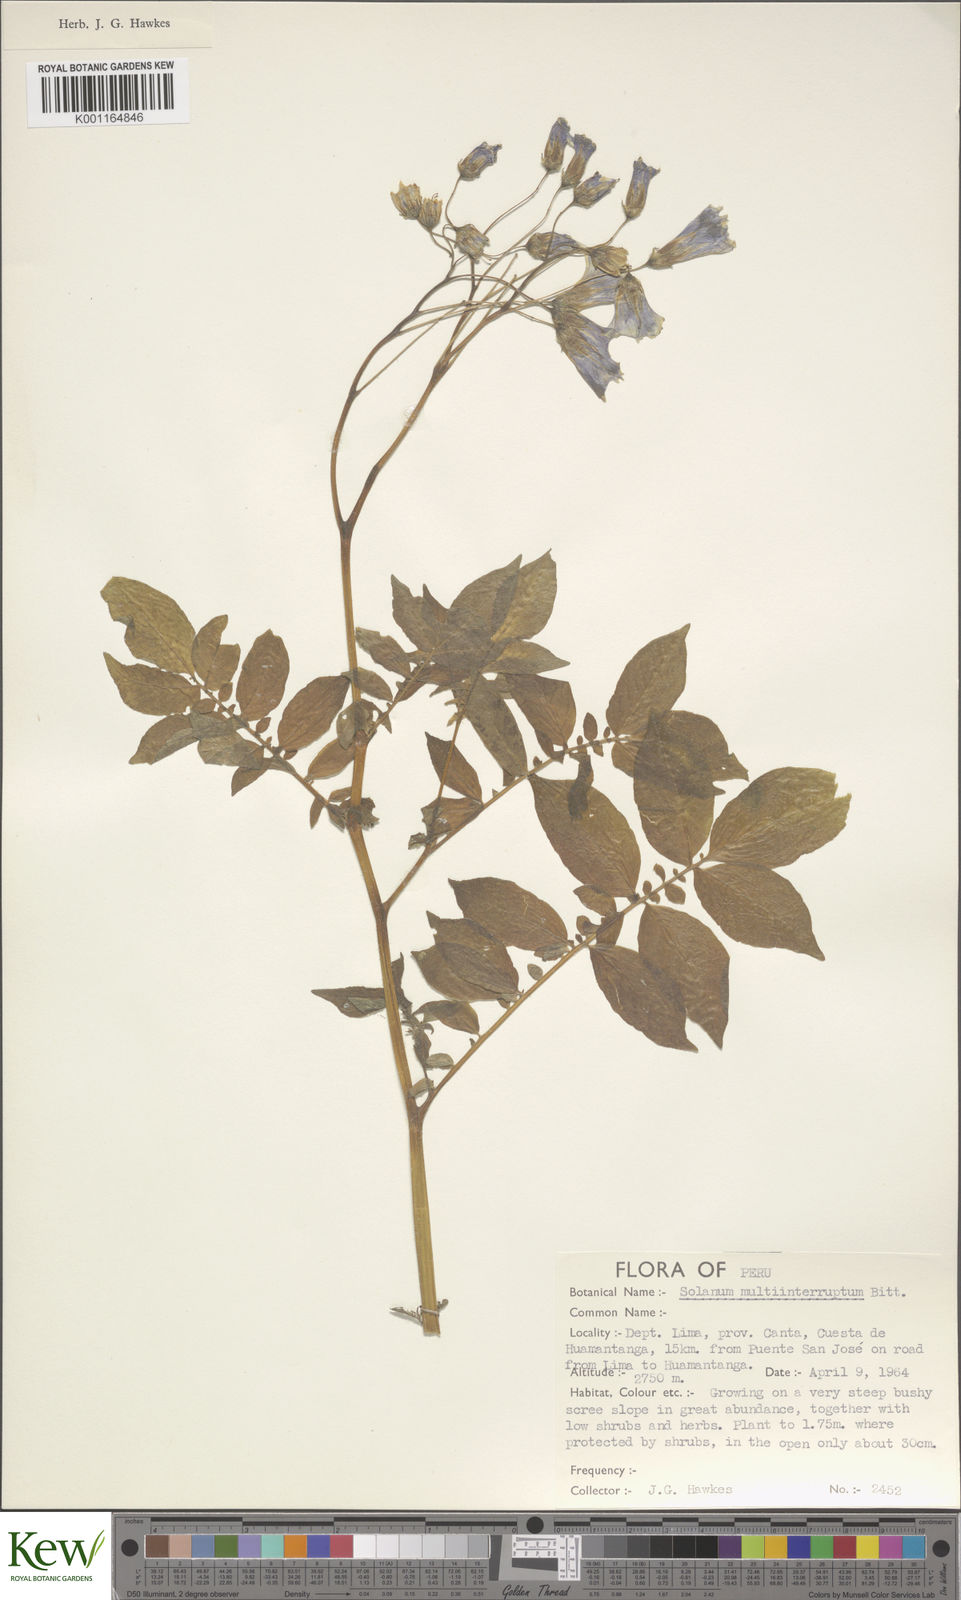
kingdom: Plantae
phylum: Tracheophyta
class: Magnoliopsida
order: Solanales
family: Solanaceae
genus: Solanum
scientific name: Solanum multiinterruptum
